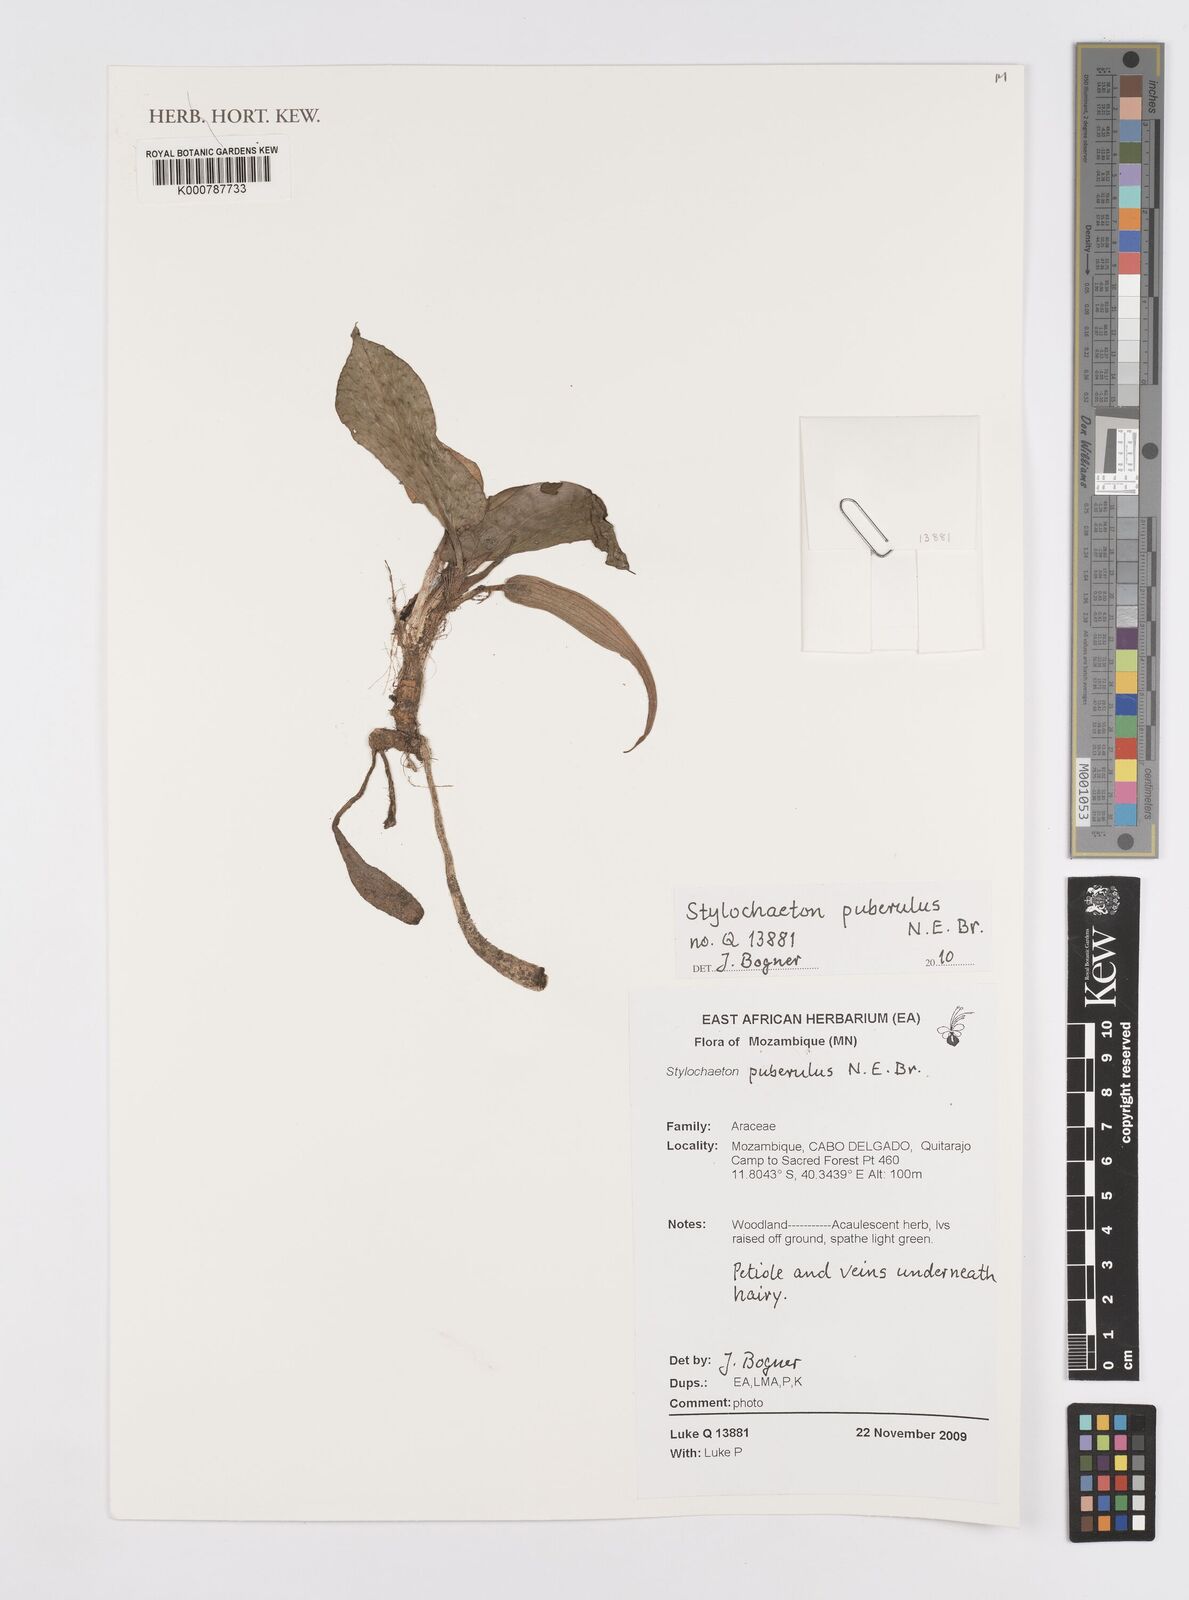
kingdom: Plantae
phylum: Tracheophyta
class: Liliopsida
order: Alismatales
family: Araceae
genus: Stylochaeton
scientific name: Stylochaeton puberulum
